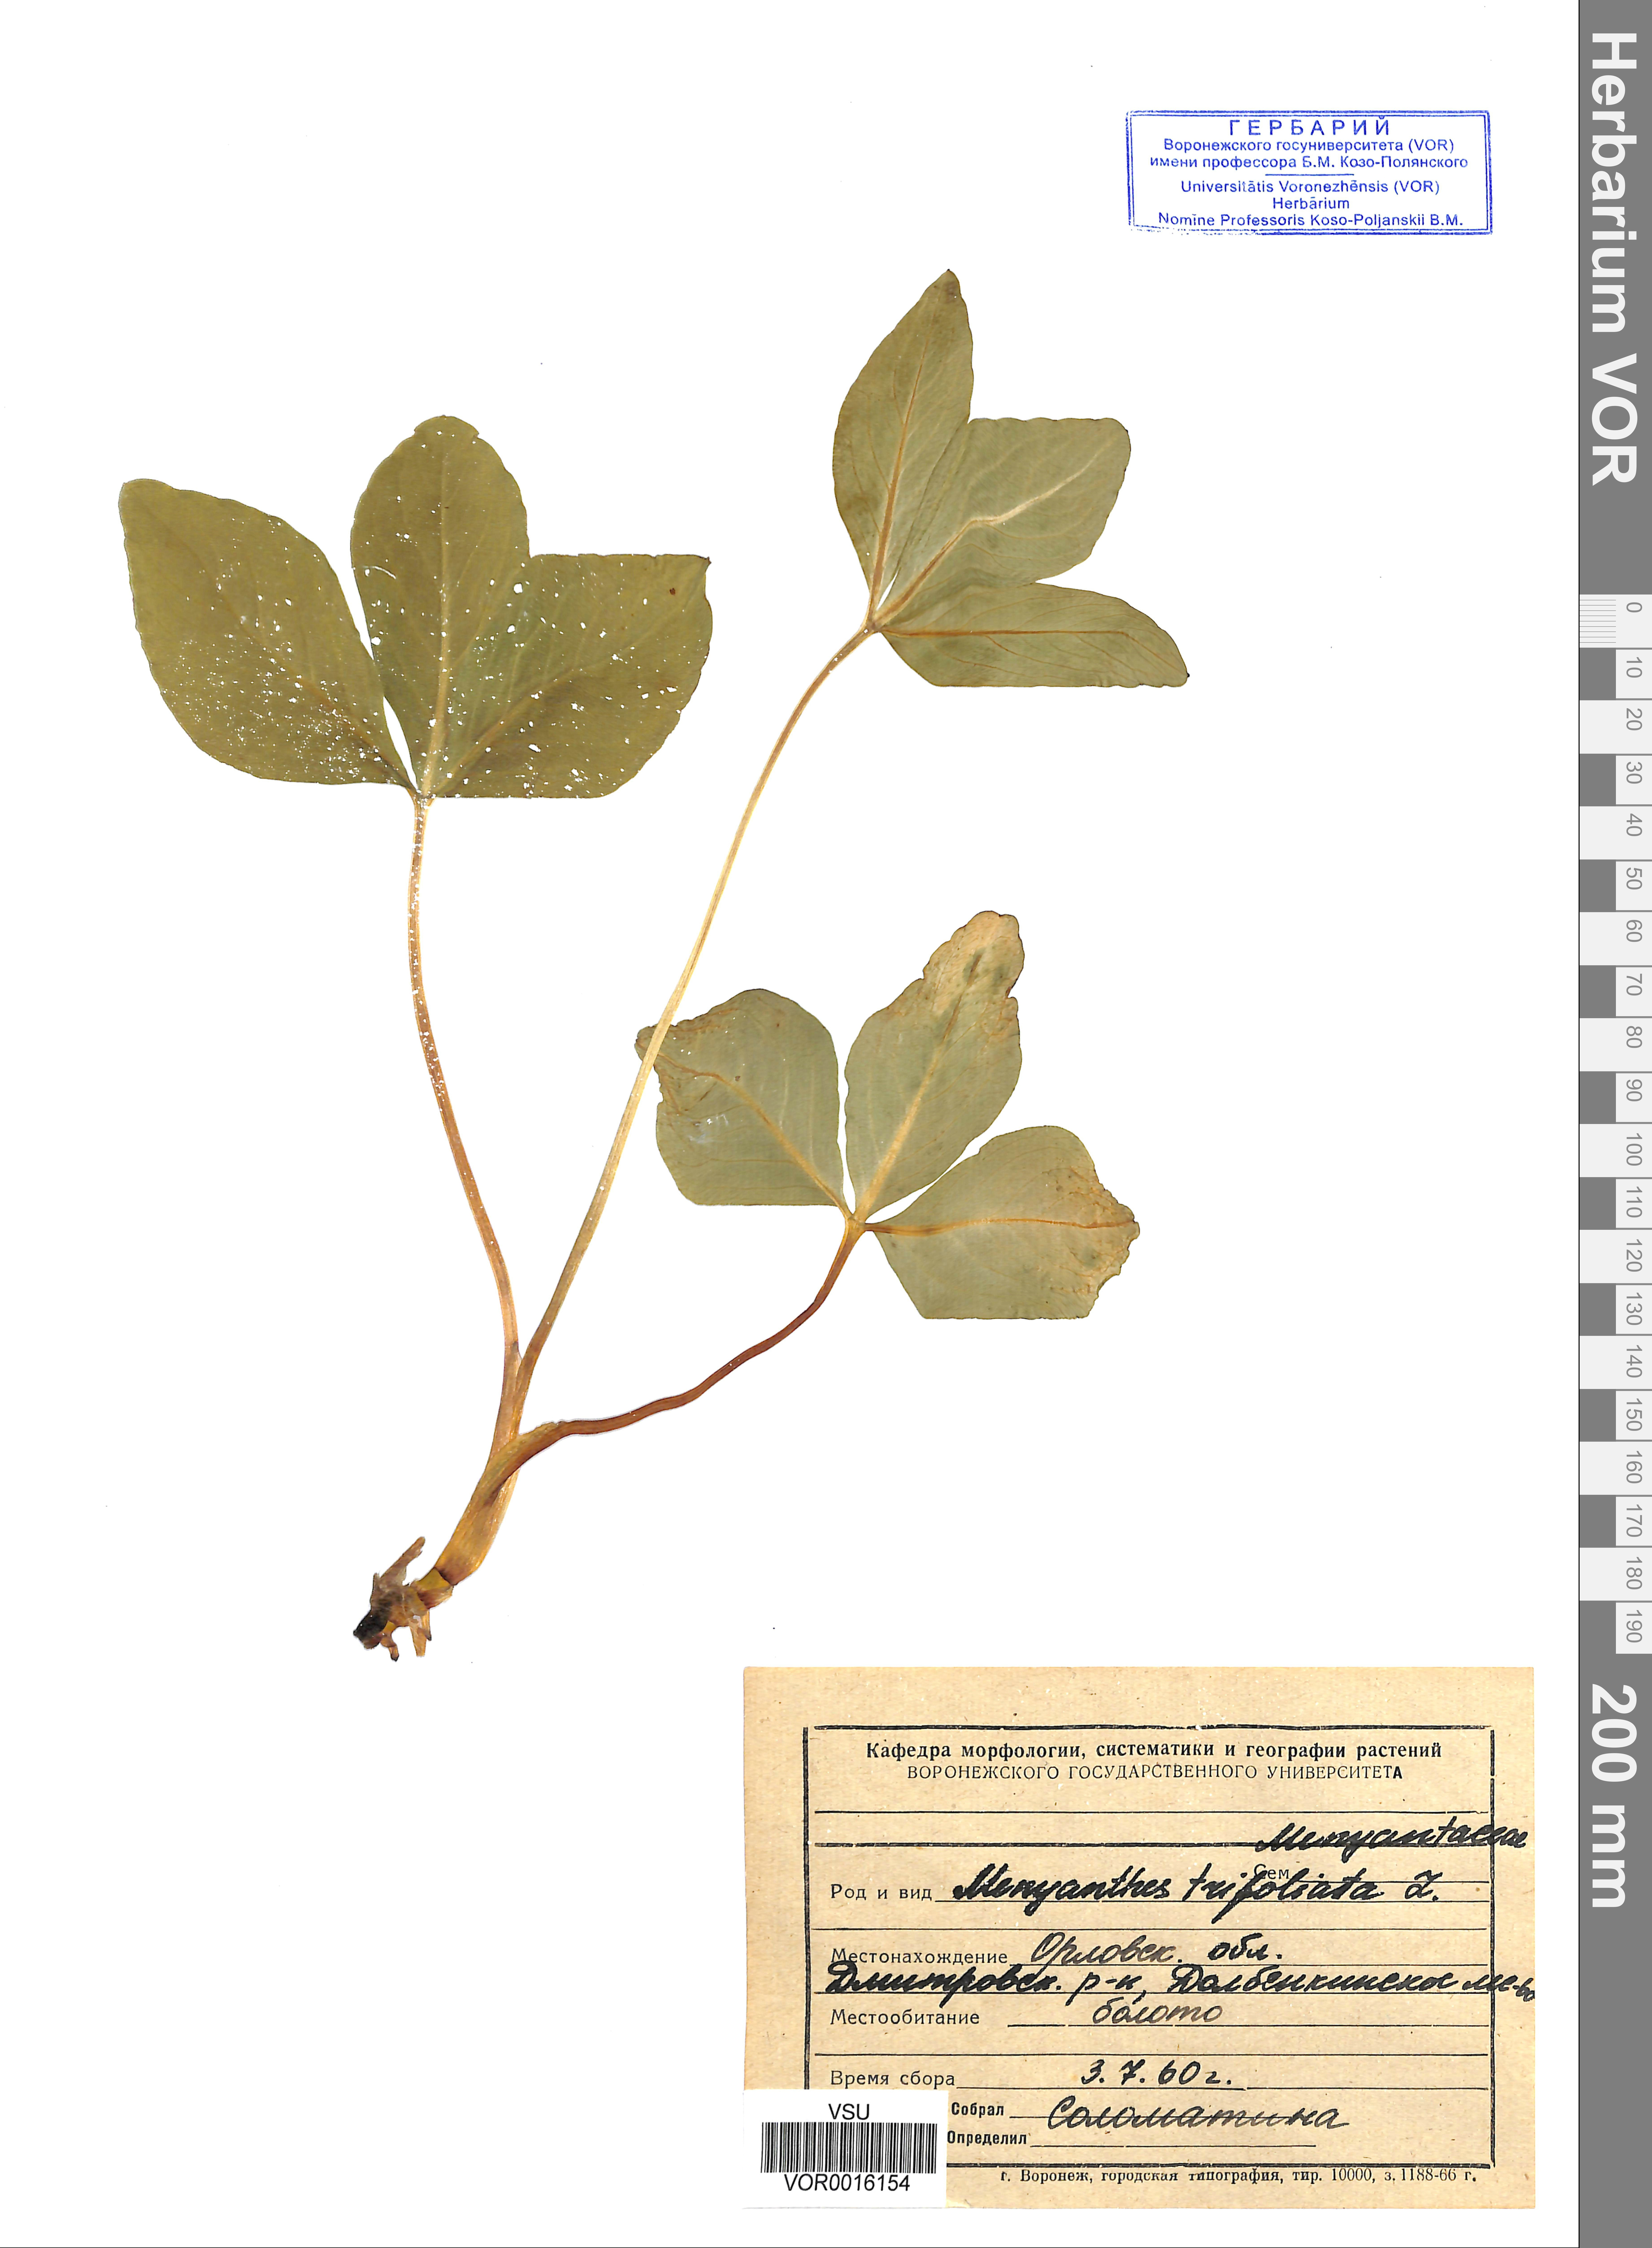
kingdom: Plantae
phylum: Tracheophyta
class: Magnoliopsida
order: Asterales
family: Menyanthaceae
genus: Menyanthes
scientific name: Menyanthes trifoliata
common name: Bogbean
